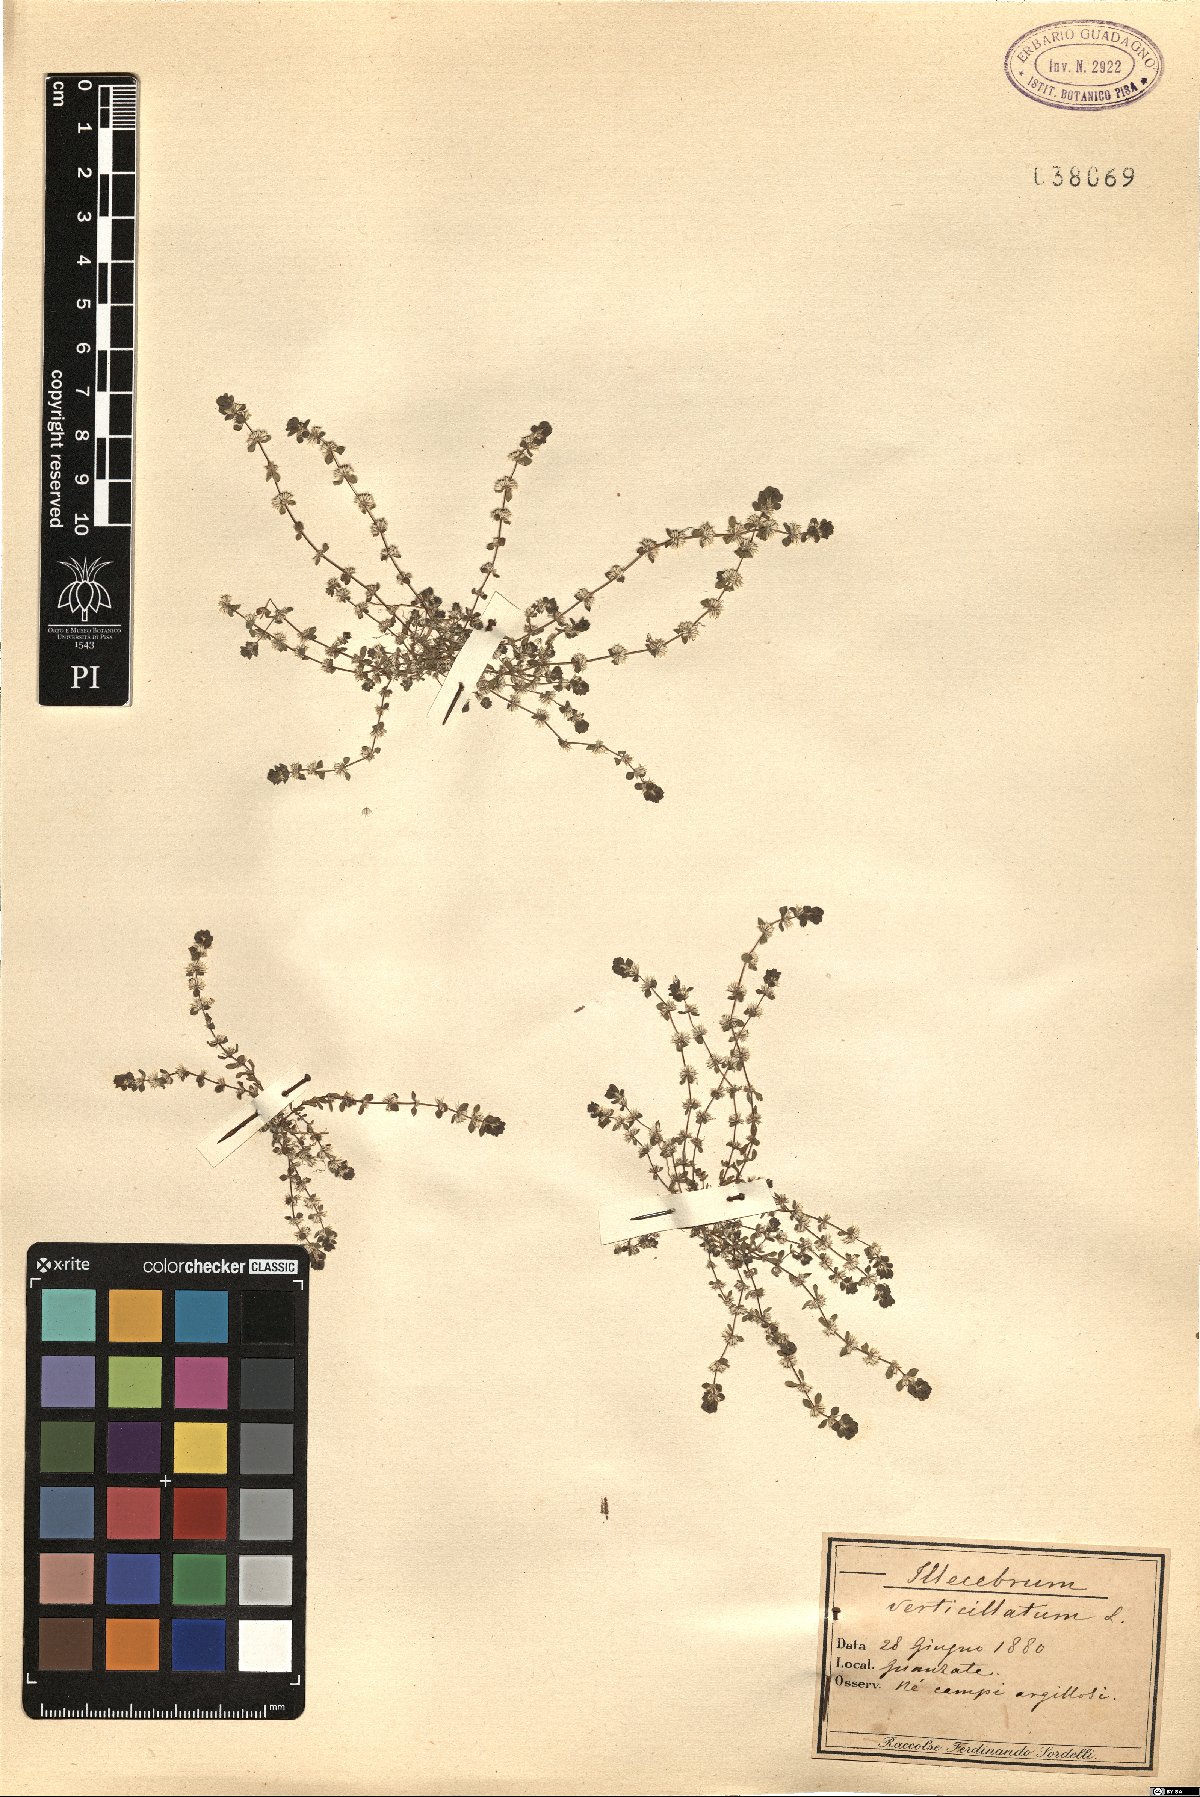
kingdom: Plantae
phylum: Tracheophyta
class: Magnoliopsida
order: Caryophyllales
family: Caryophyllaceae
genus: Illecebrum
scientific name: Illecebrum verticillatum
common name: Coral necklace
